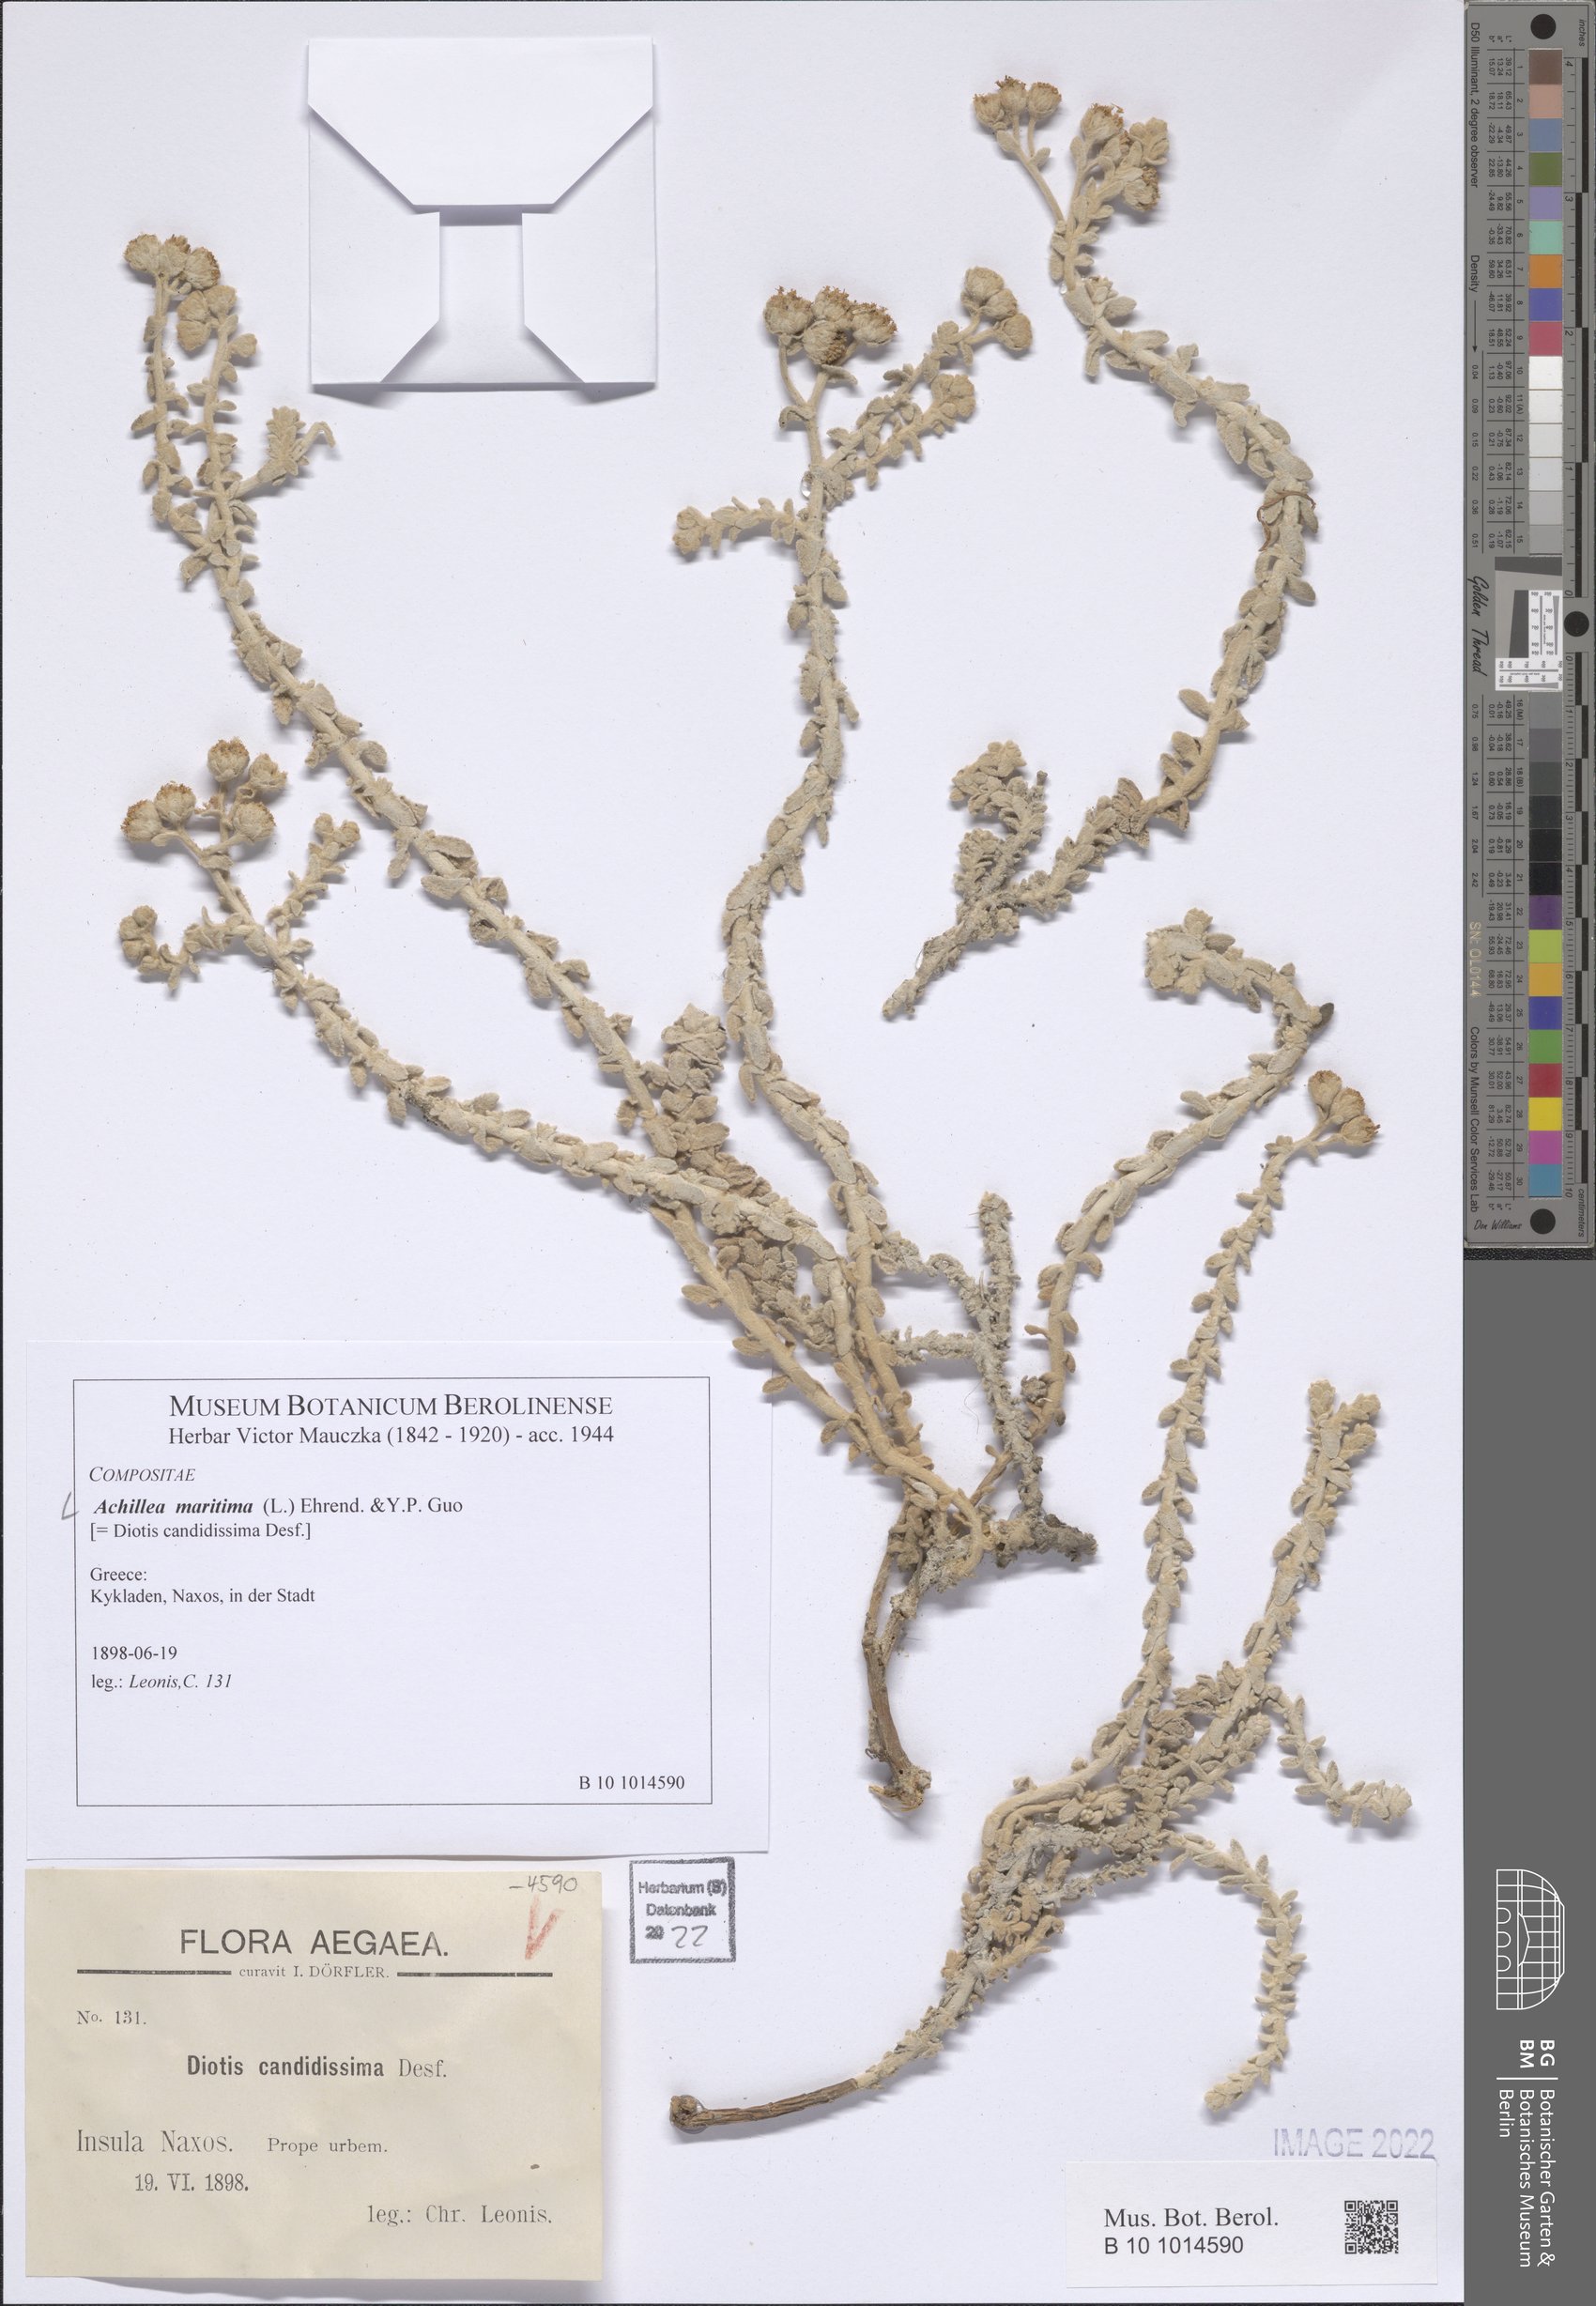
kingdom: Plantae
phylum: Tracheophyta
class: Magnoliopsida
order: Asterales
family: Asteraceae
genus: Achillea
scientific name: Achillea maritima
